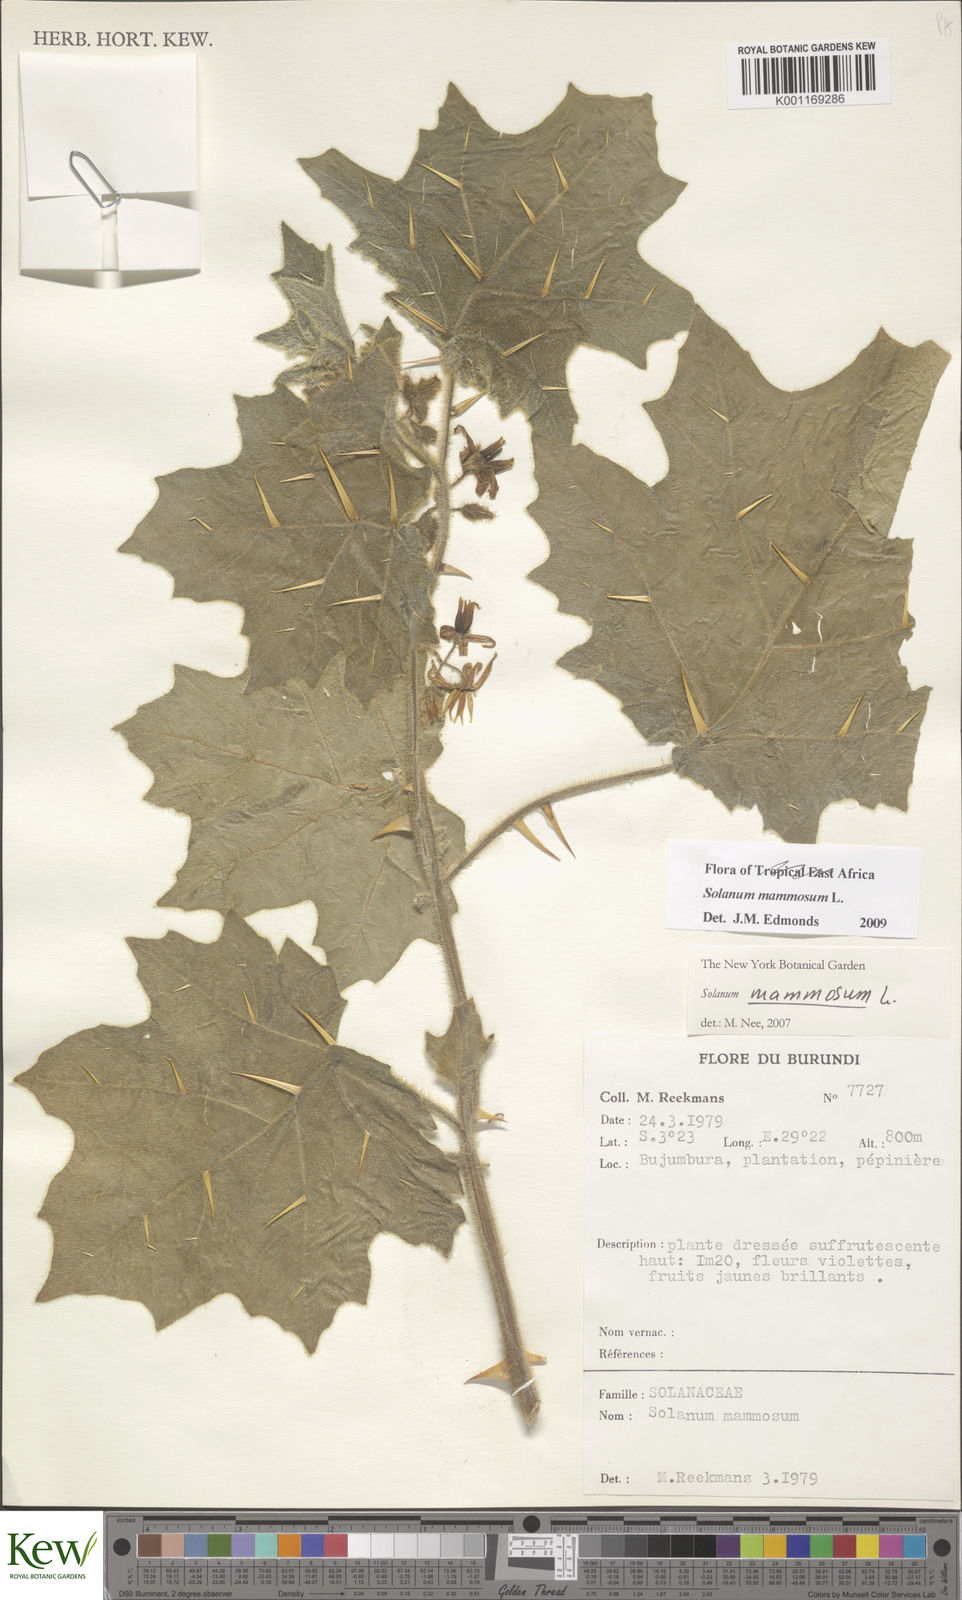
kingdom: Plantae
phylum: Tracheophyta
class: Magnoliopsida
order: Solanales
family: Solanaceae
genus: Solanum
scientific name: Solanum
